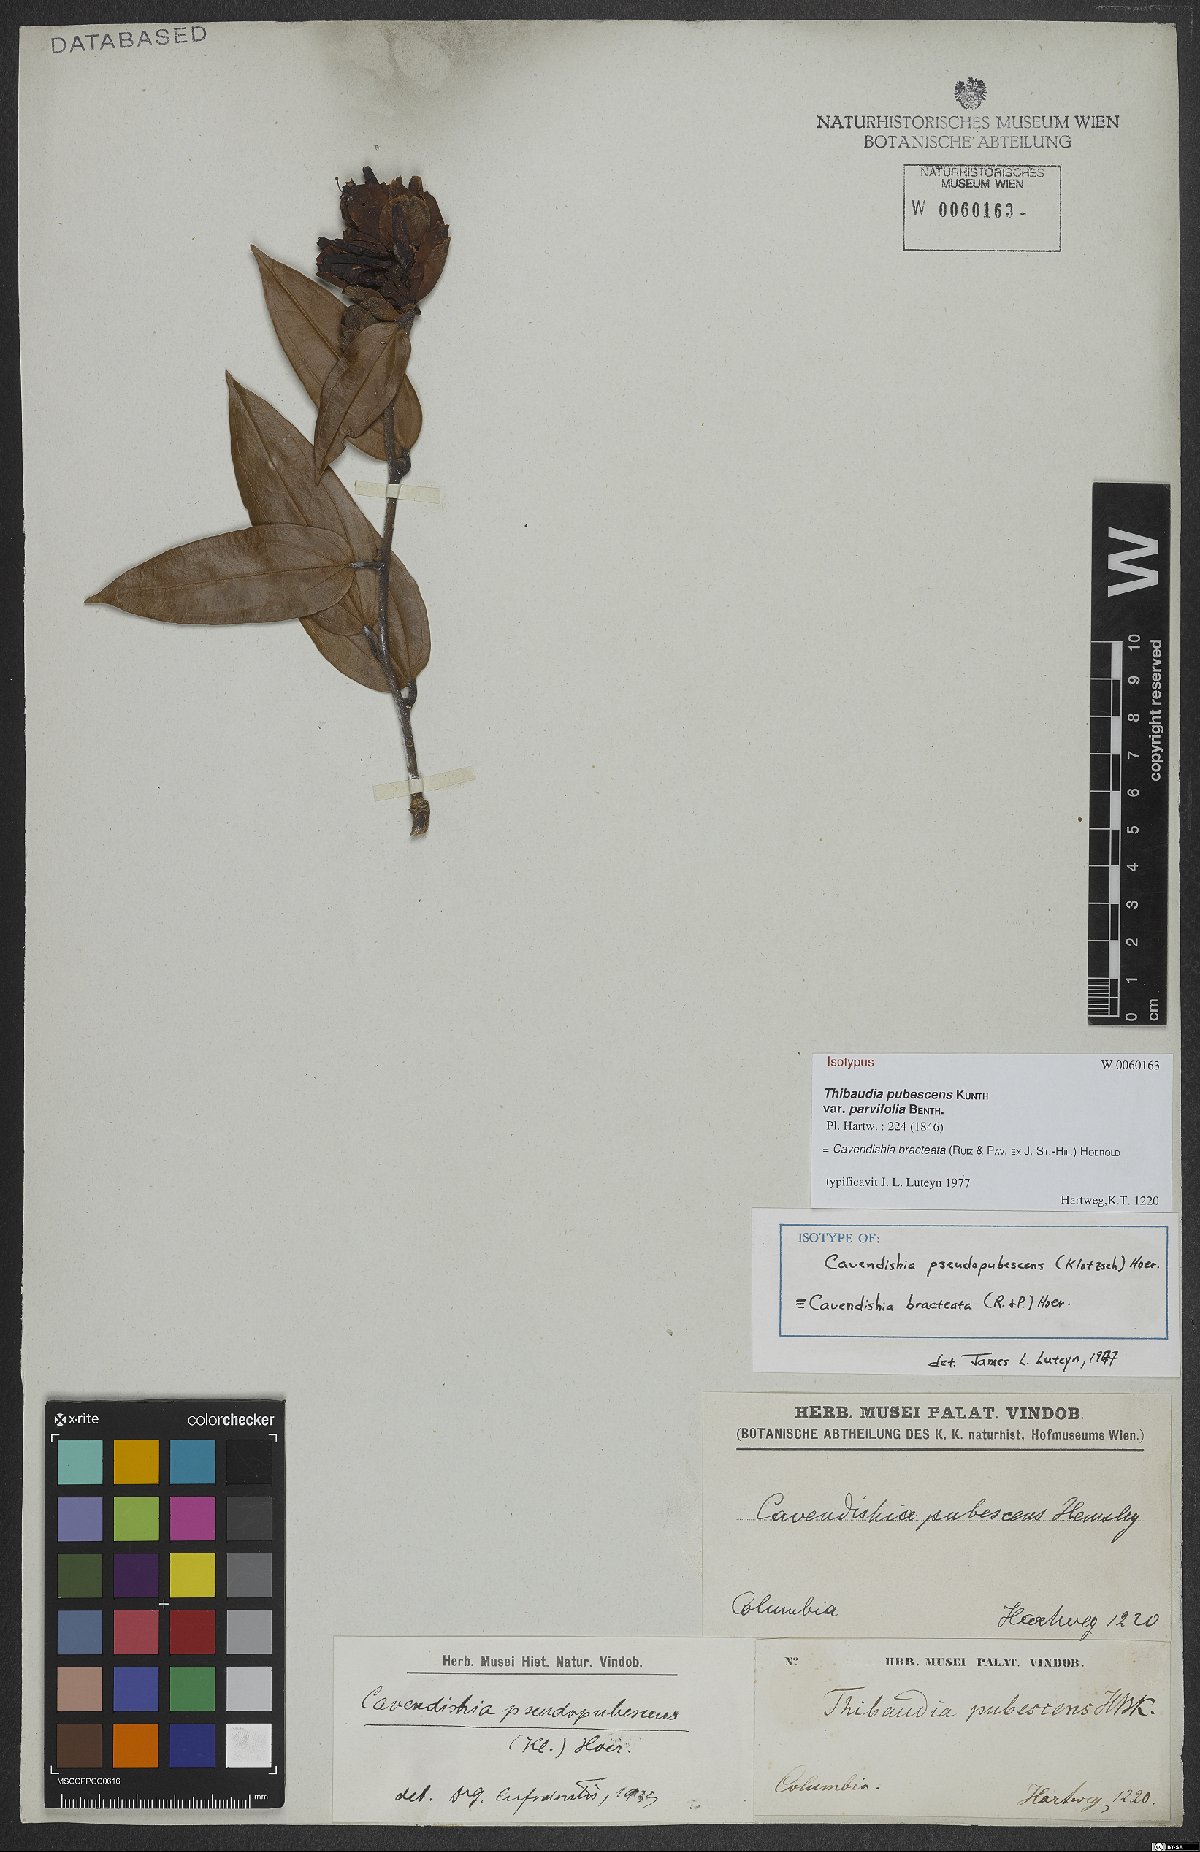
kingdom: Plantae
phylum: Tracheophyta
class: Magnoliopsida
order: Ericales
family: Ericaceae
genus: Cavendishia
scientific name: Cavendishia bracteata
